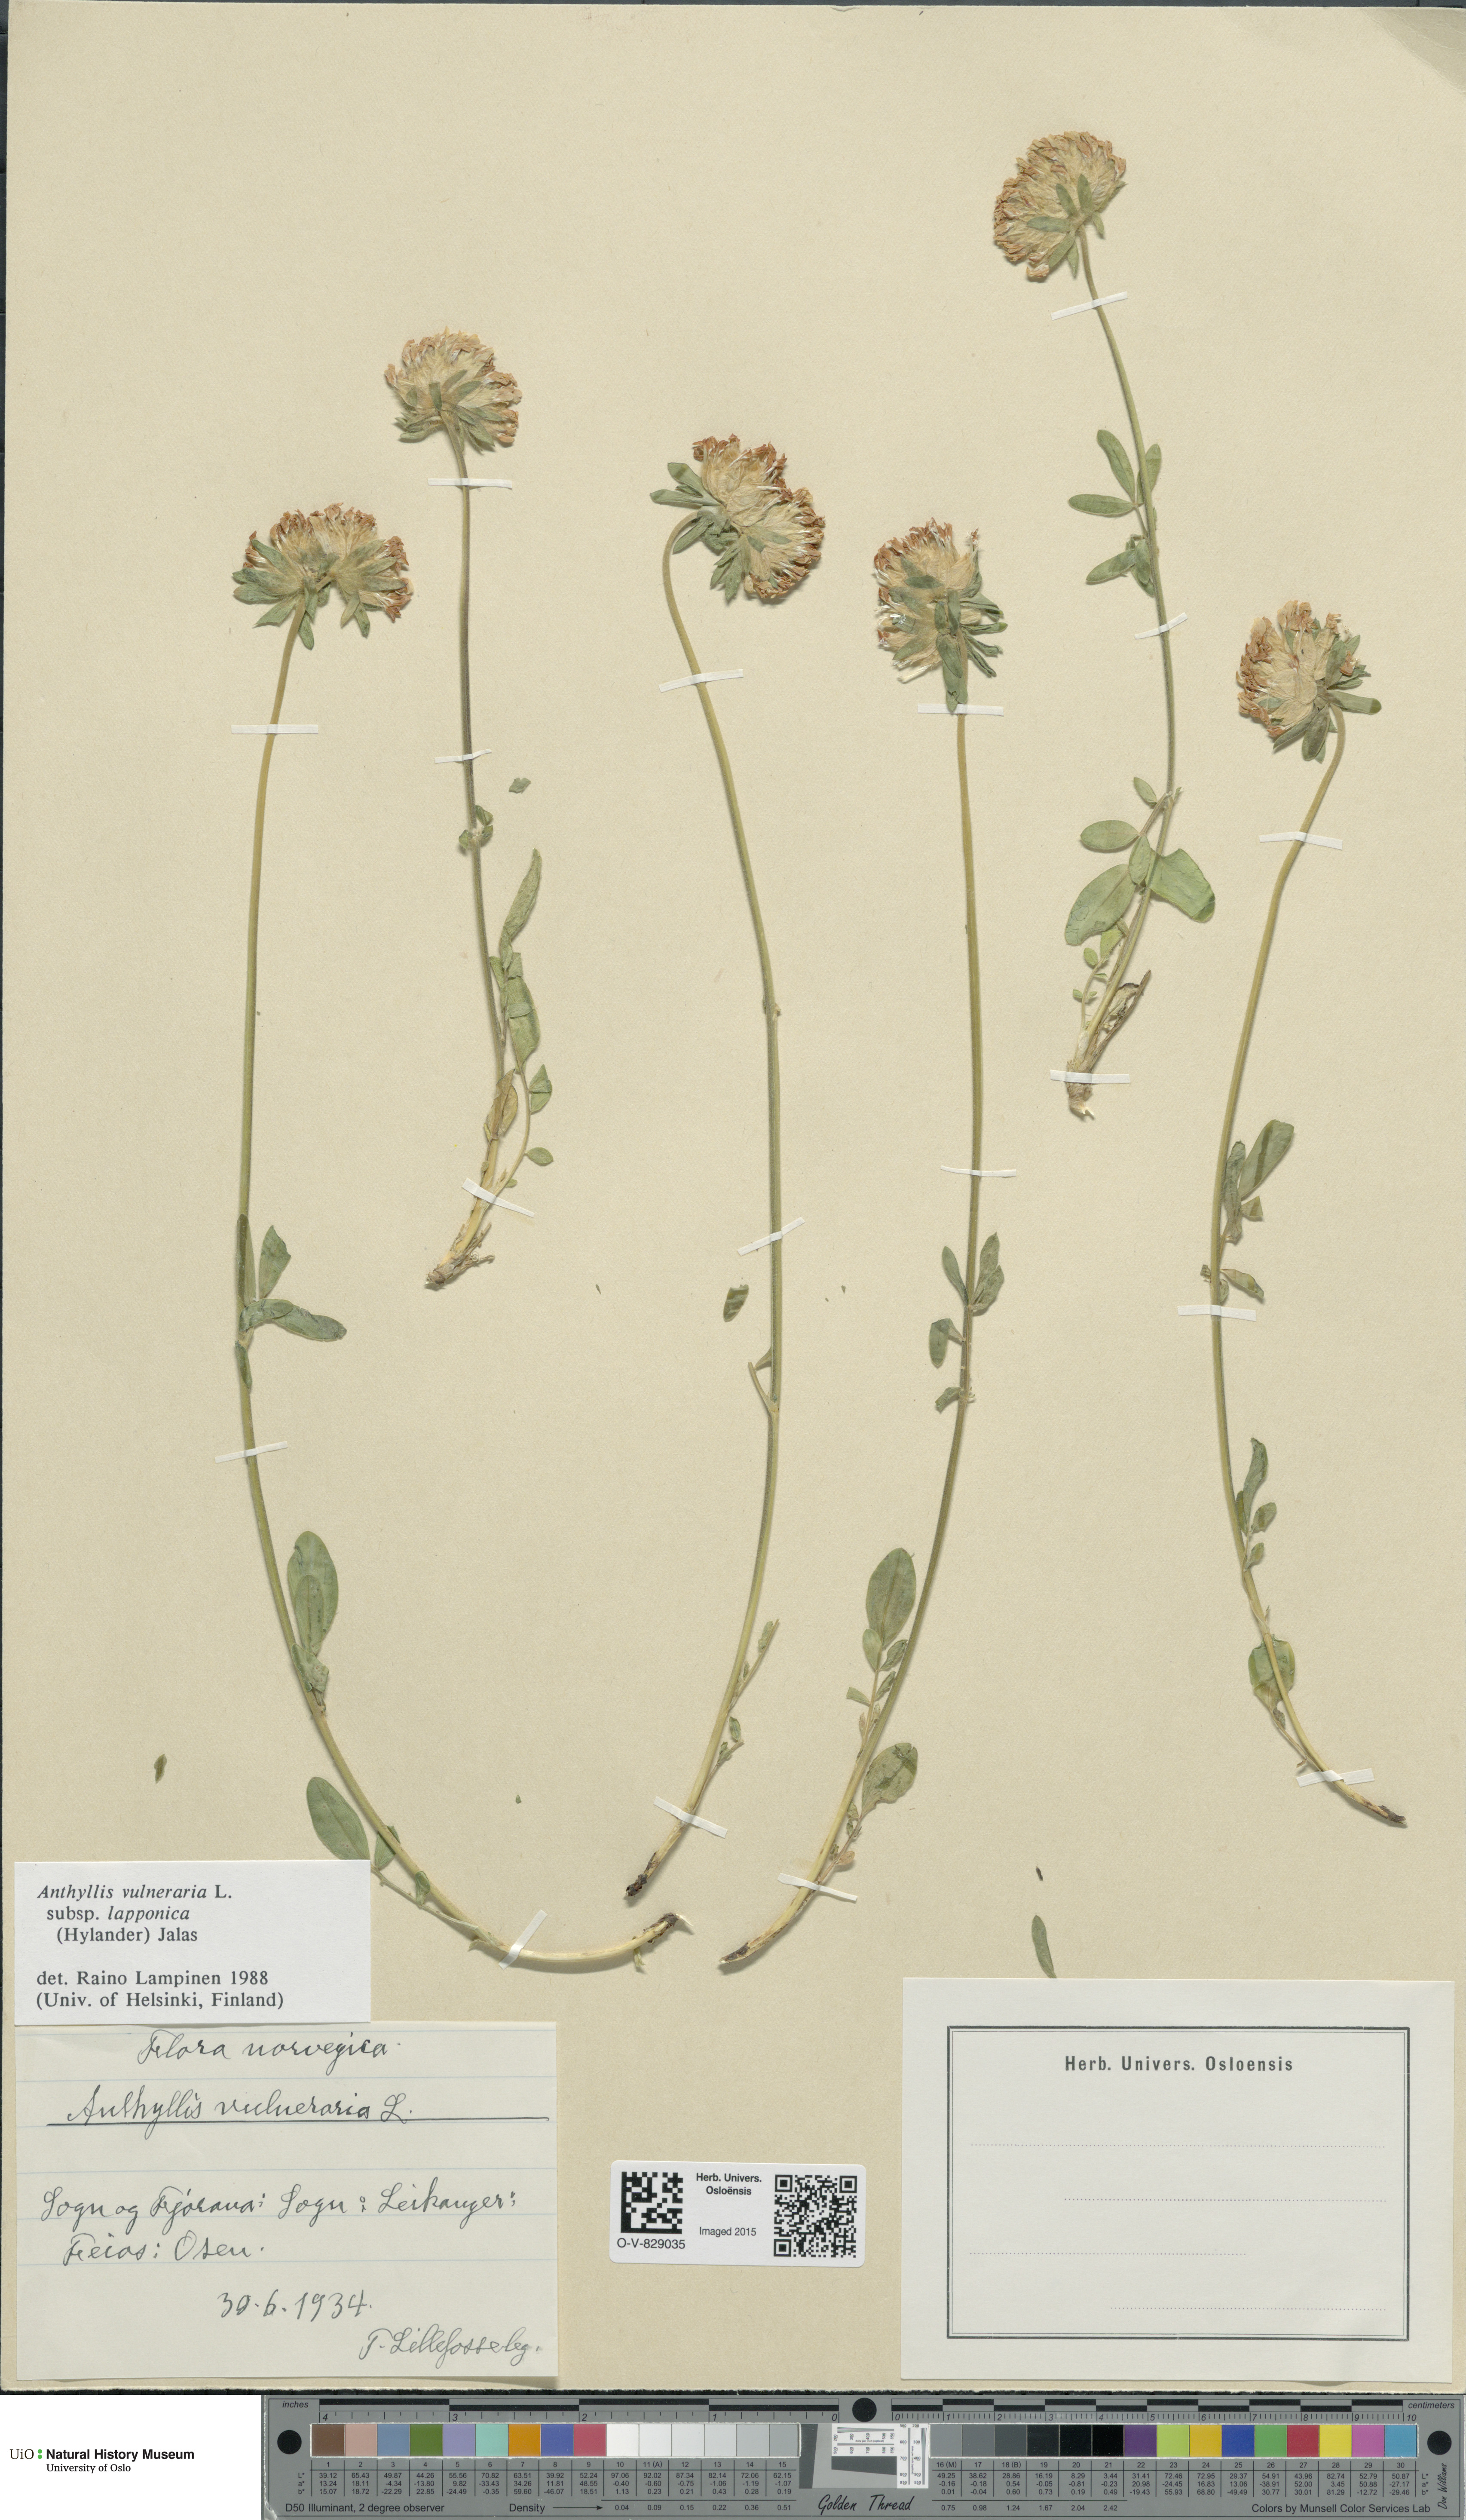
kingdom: Plantae
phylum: Tracheophyta
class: Magnoliopsida
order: Fabales
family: Fabaceae
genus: Anthyllis
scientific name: Anthyllis vulneraria
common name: Kidney vetch
